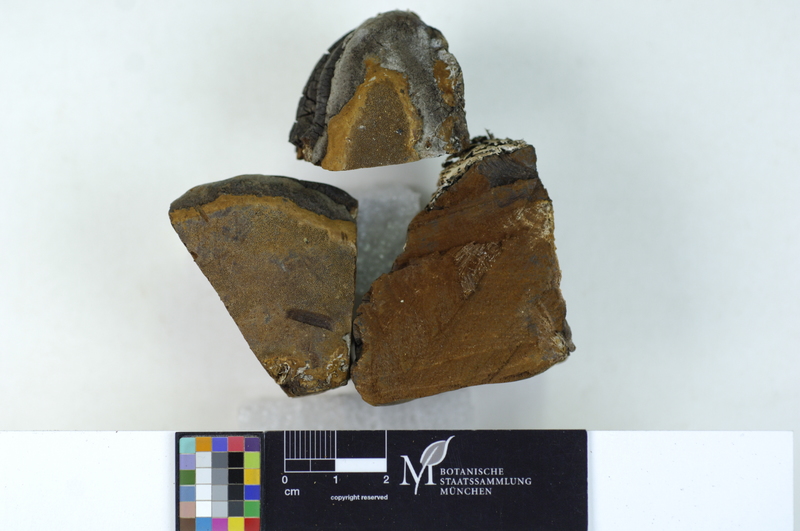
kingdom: Fungi
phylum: Basidiomycota
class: Agaricomycetes
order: Hymenochaetales
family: Hymenochaetaceae
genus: Phellinus
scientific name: Phellinus cinereus
